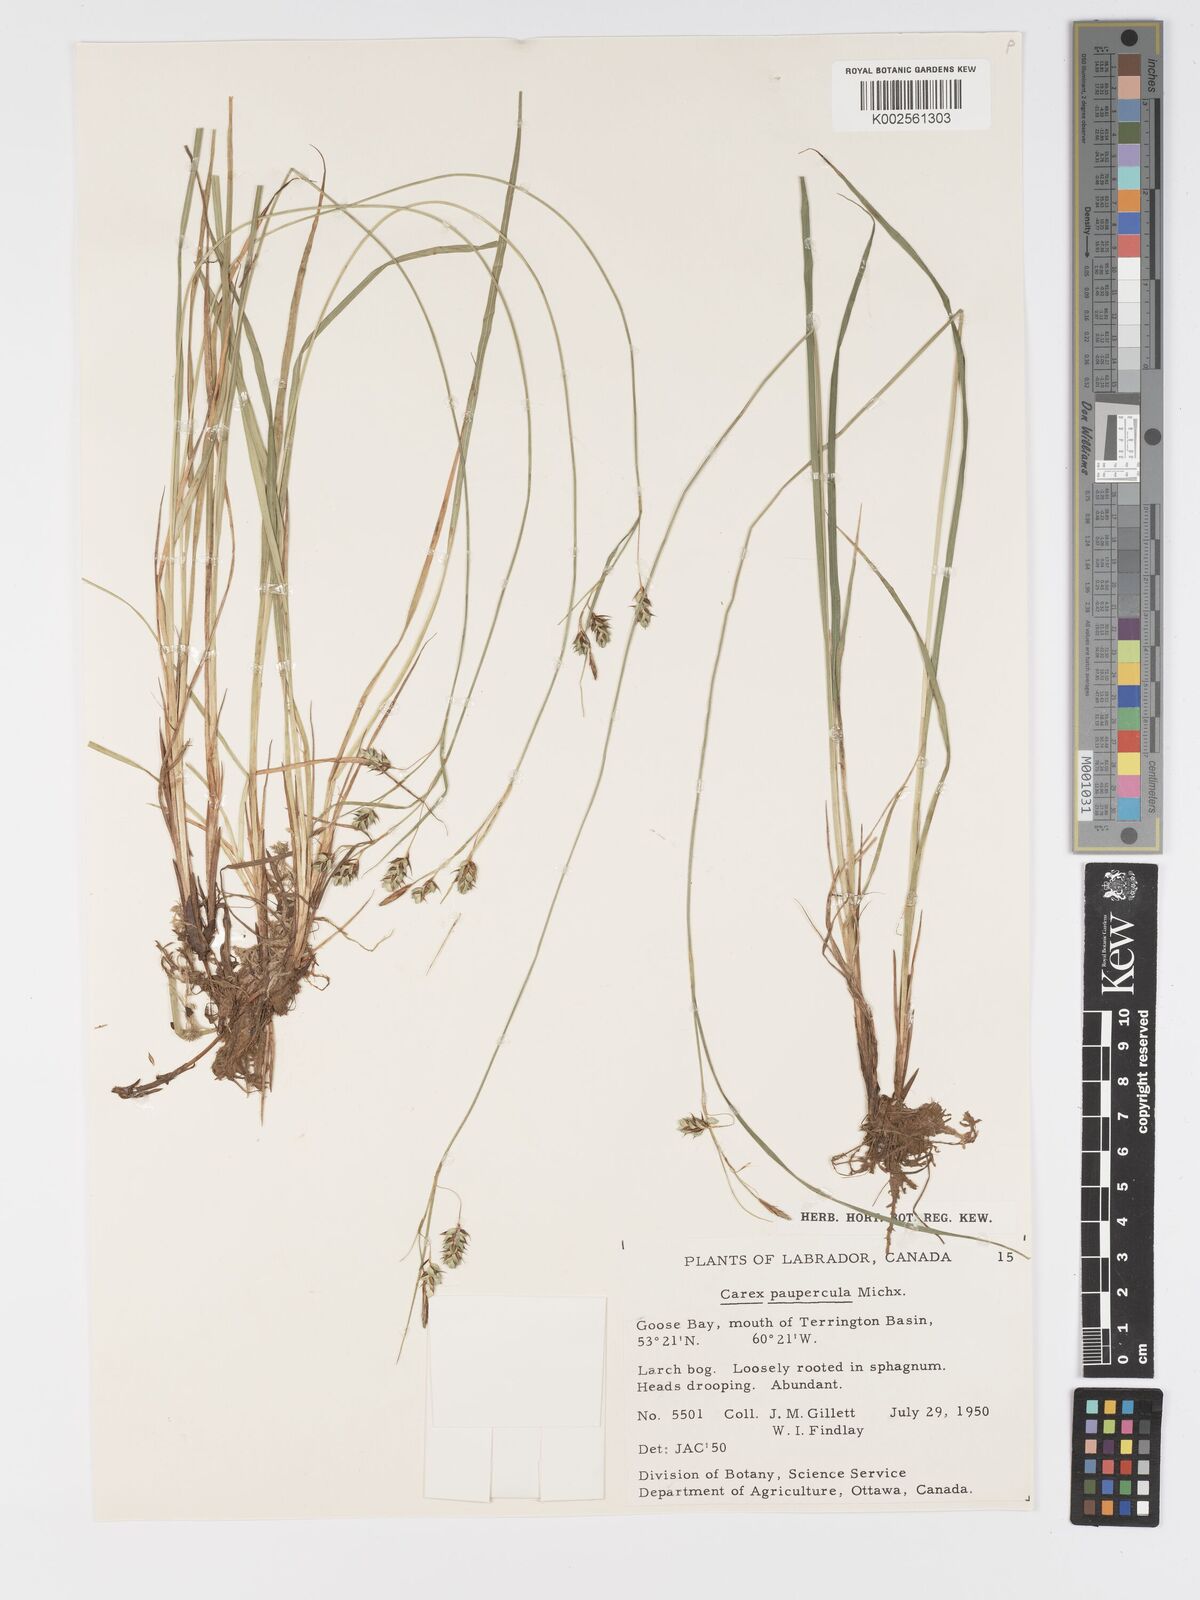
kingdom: Plantae
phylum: Tracheophyta
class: Liliopsida
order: Poales
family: Cyperaceae
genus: Carex
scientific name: Carex magellanica
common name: Bog sedge
